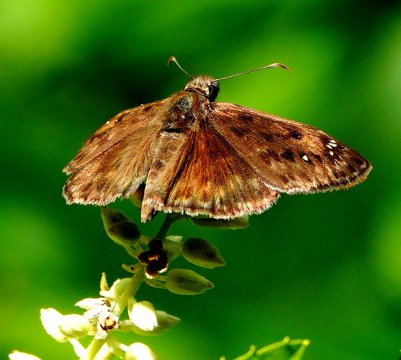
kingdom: Animalia
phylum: Arthropoda
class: Insecta
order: Lepidoptera
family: Hesperiidae
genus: Gesta
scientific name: Gesta
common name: Horace's Duskywing
